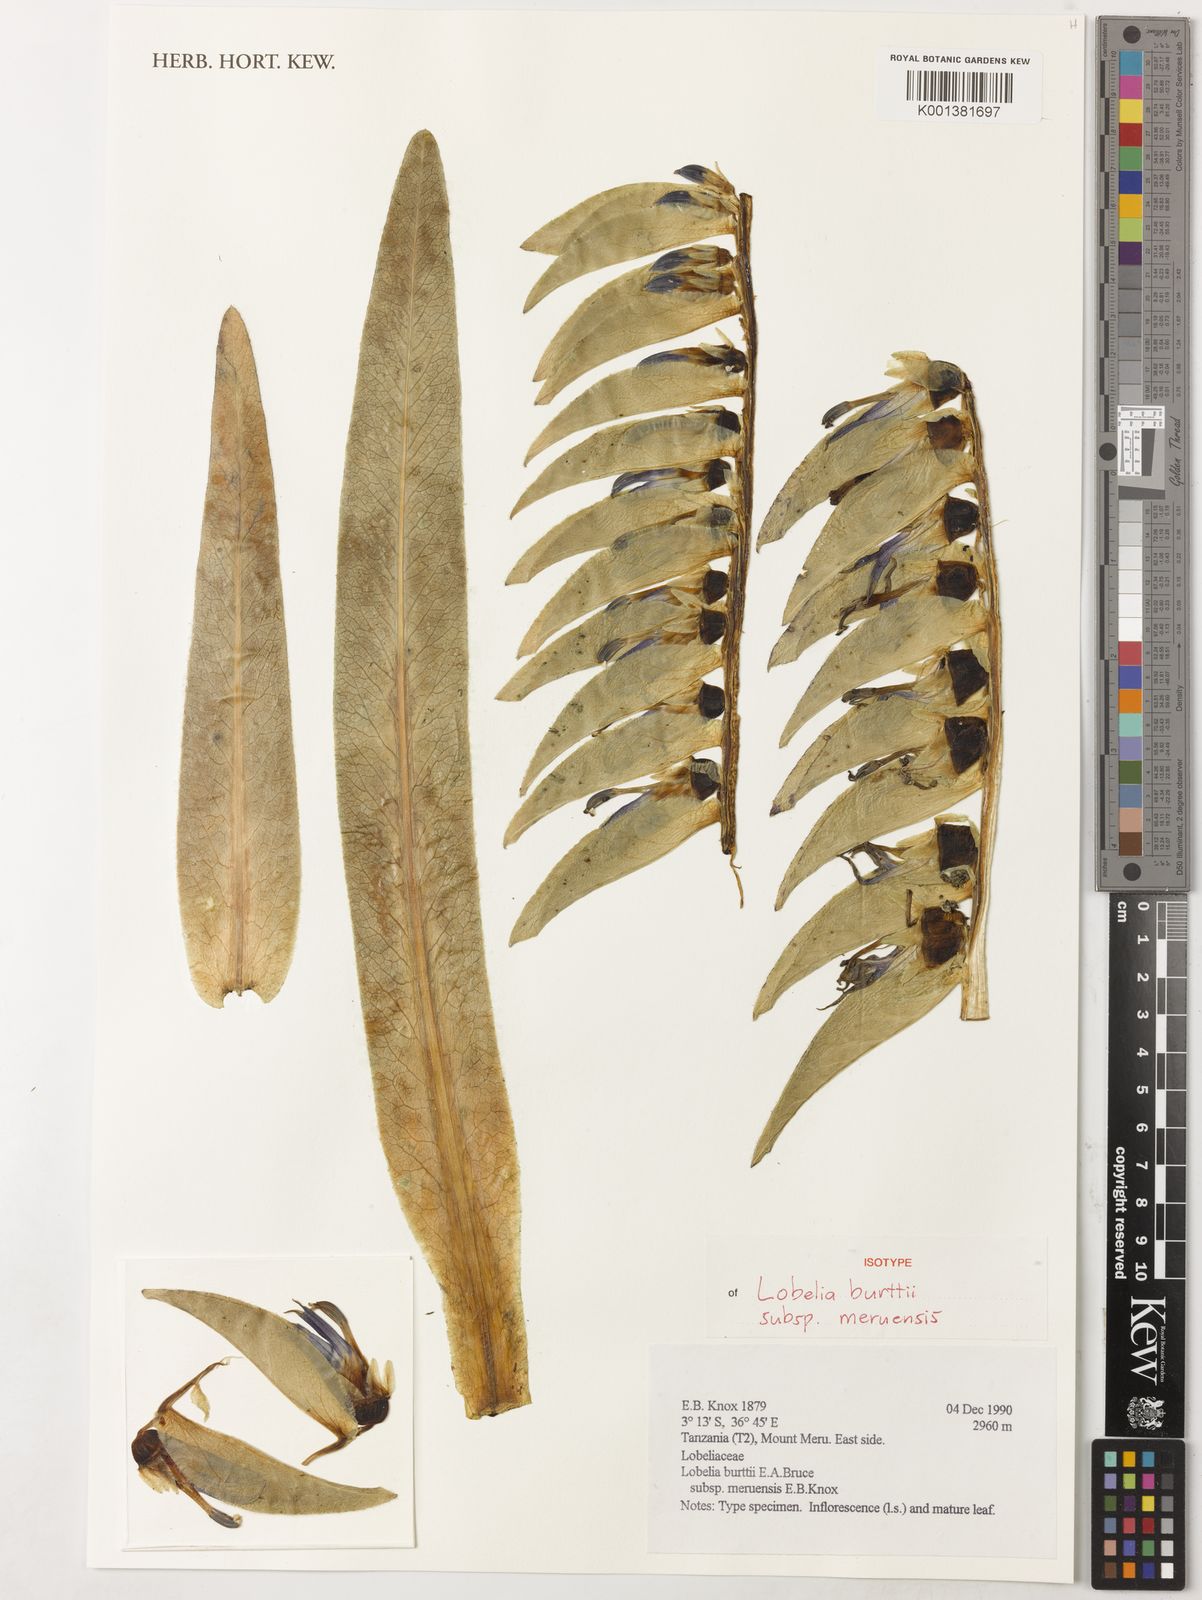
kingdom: Plantae
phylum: Tracheophyta
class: Magnoliopsida
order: Asterales
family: Campanulaceae
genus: Lobelia
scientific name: Lobelia burttii
